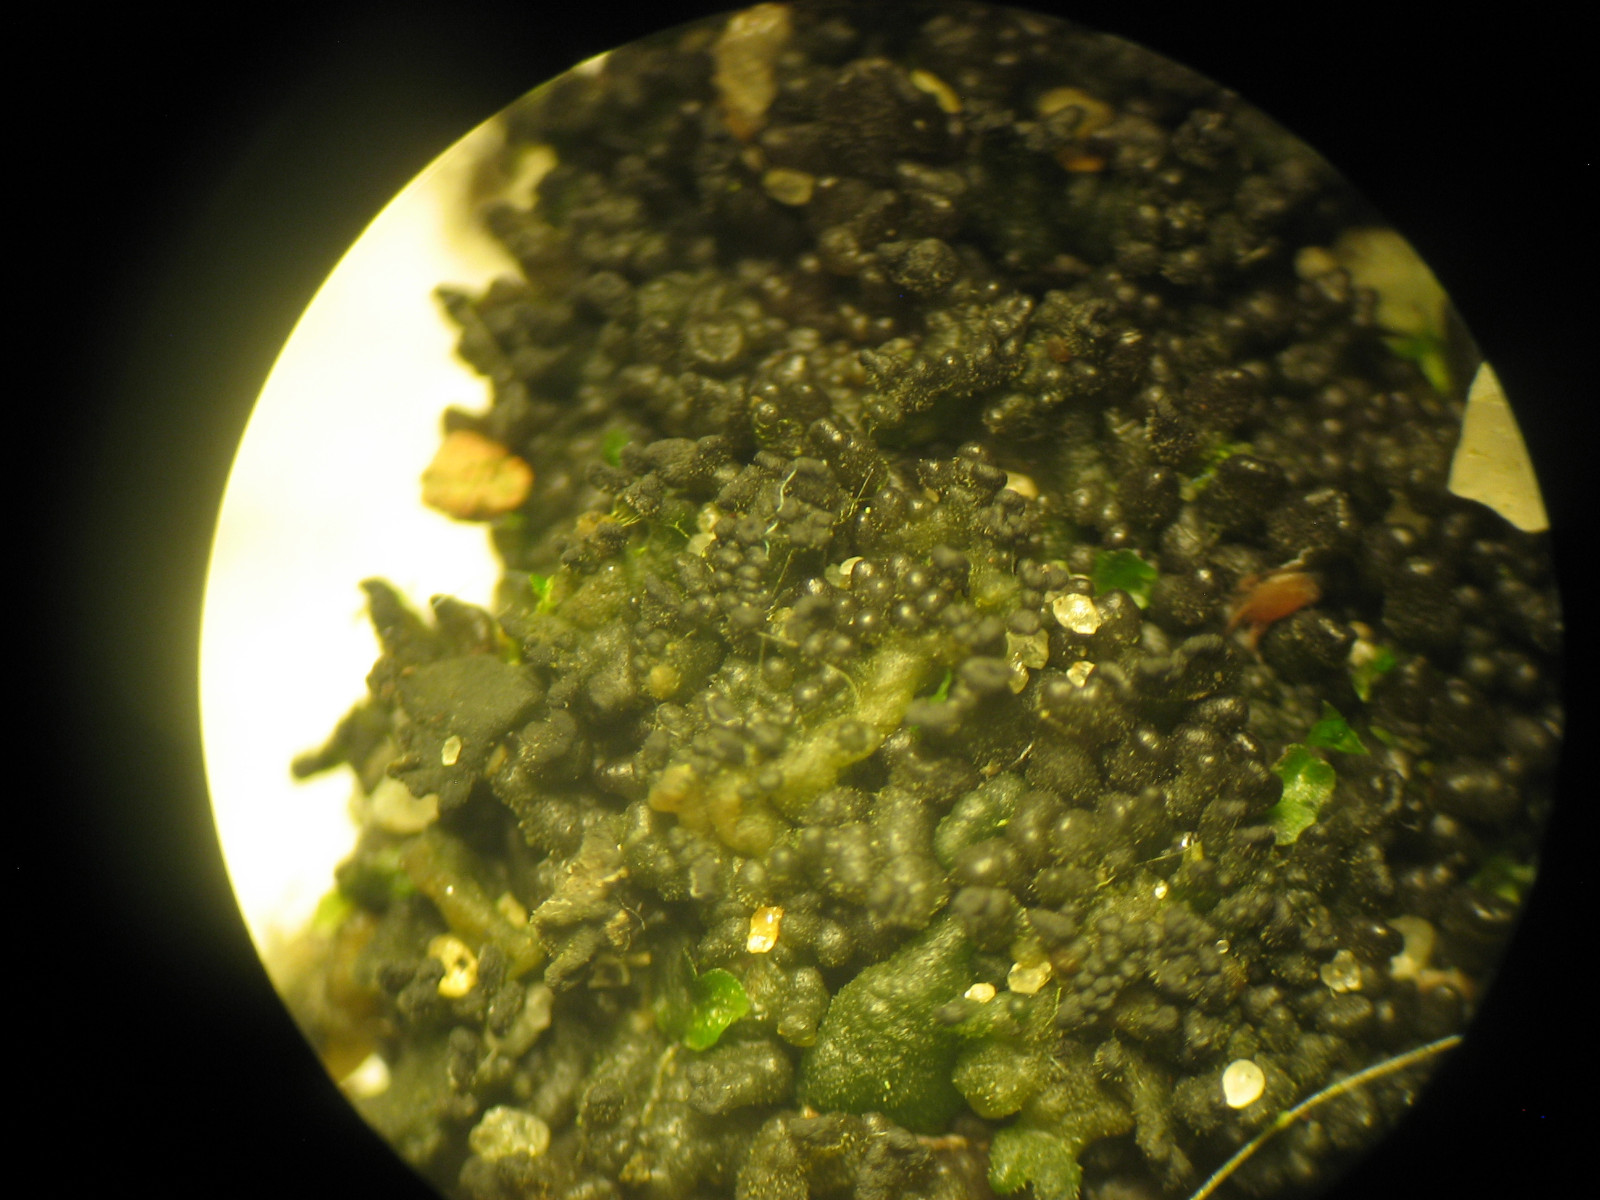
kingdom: Fungi
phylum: Ascomycota
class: Lecanoromycetes
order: Peltigerales
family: Collemataceae
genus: Enchylium
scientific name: Enchylium tenax
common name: tyk bævrelav
